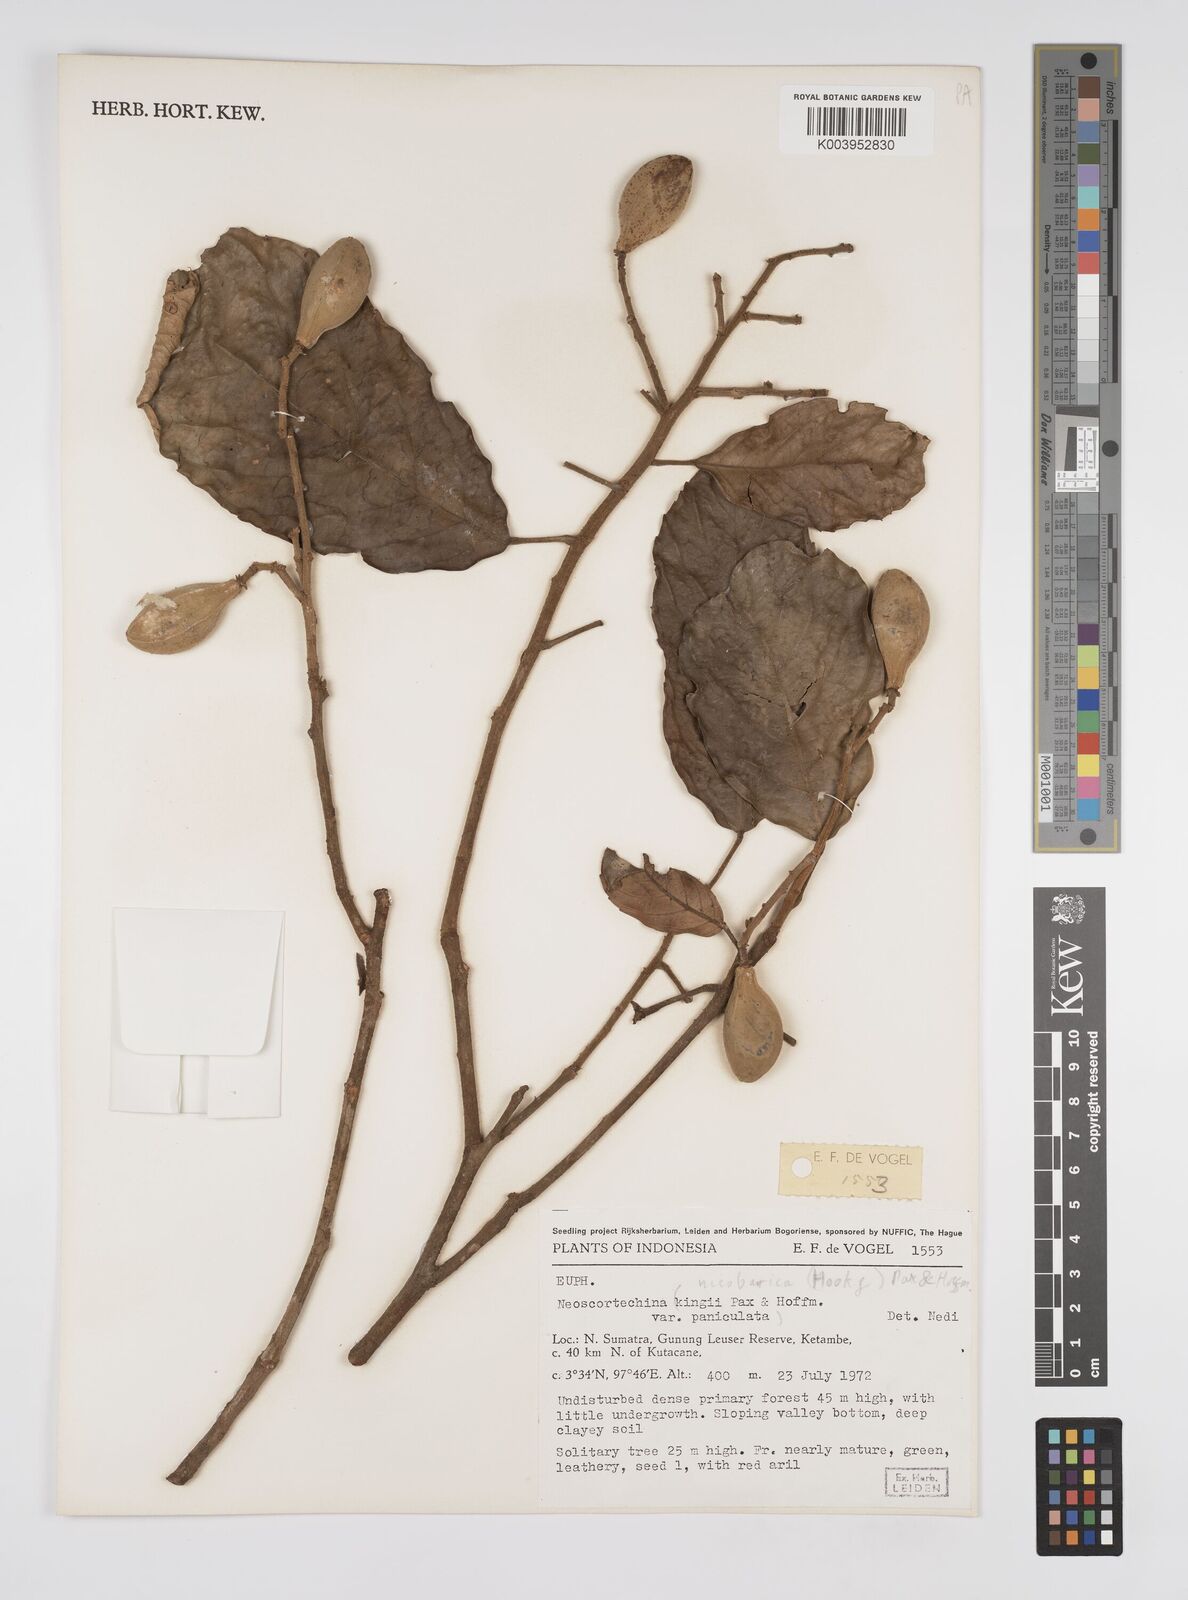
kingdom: Plantae
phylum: Tracheophyta
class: Magnoliopsida
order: Malpighiales
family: Euphorbiaceae
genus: Neoscortechinia
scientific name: Neoscortechinia nicobarica
